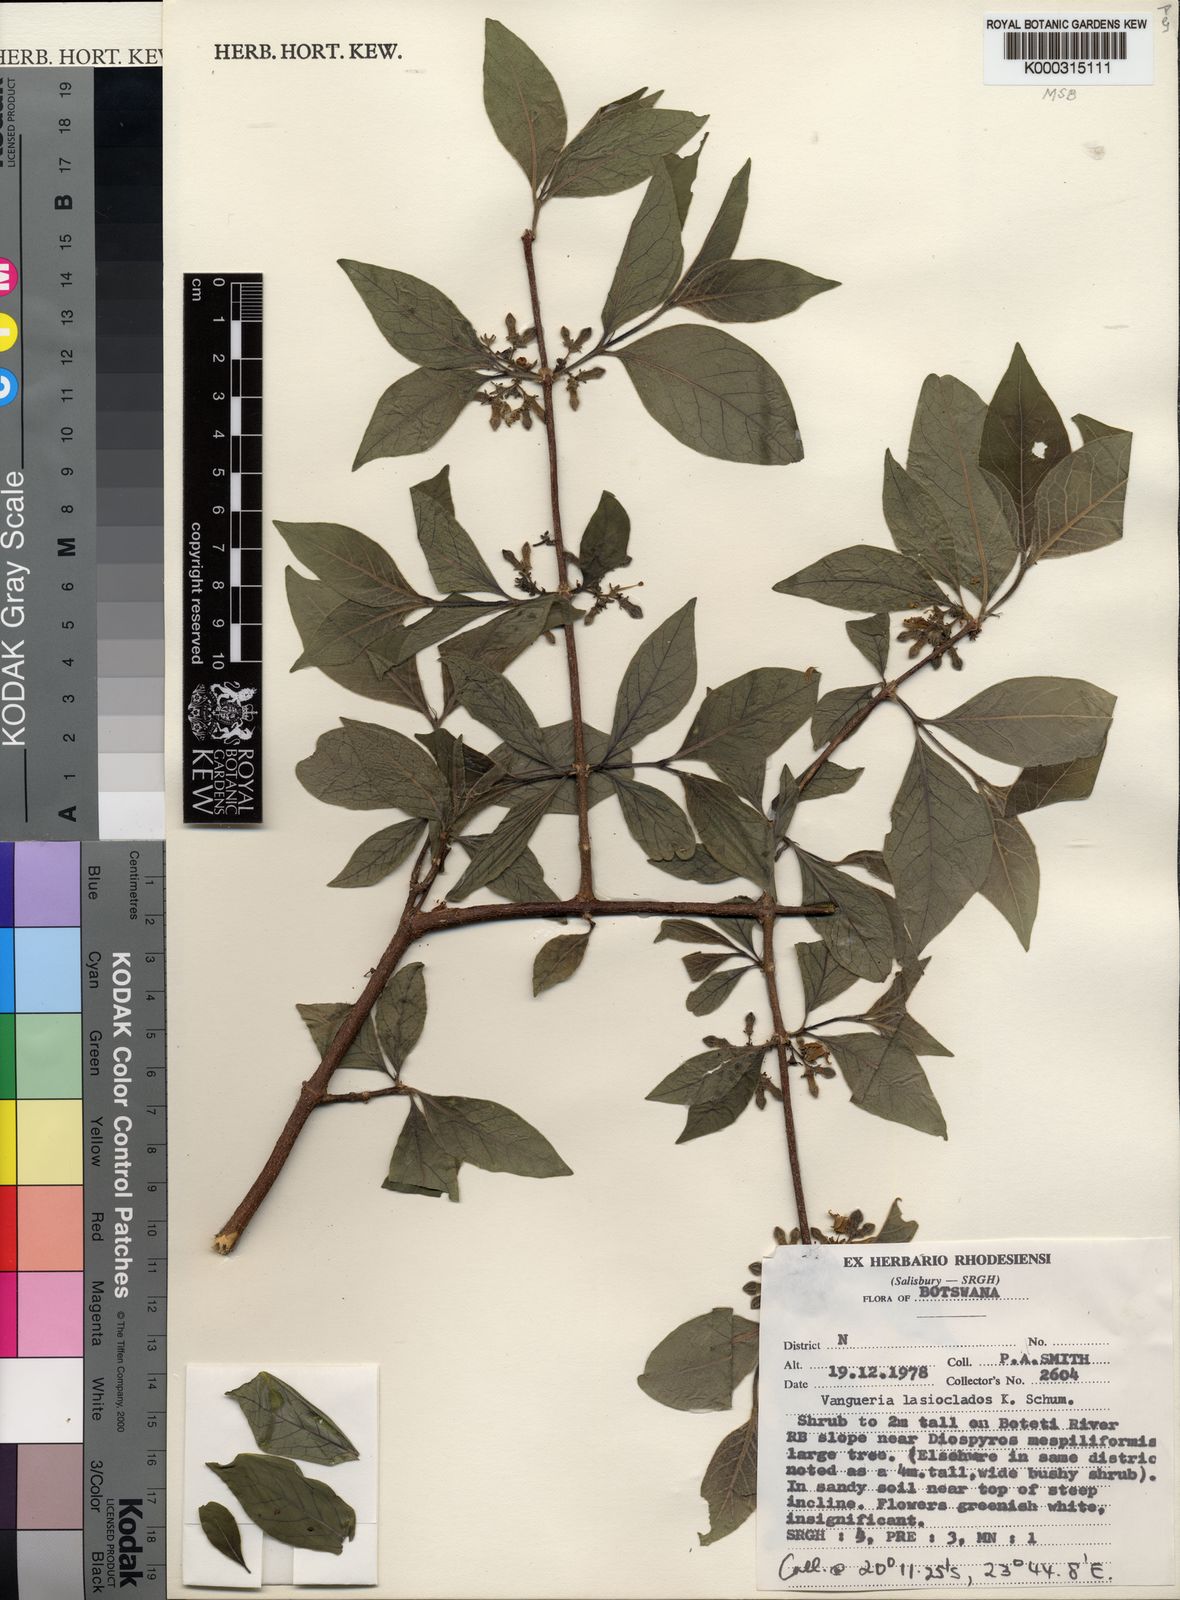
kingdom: Plantae
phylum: Tracheophyta
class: Magnoliopsida
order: Gentianales
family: Rubiaceae
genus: Vangueria
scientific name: Vangueria proschii
